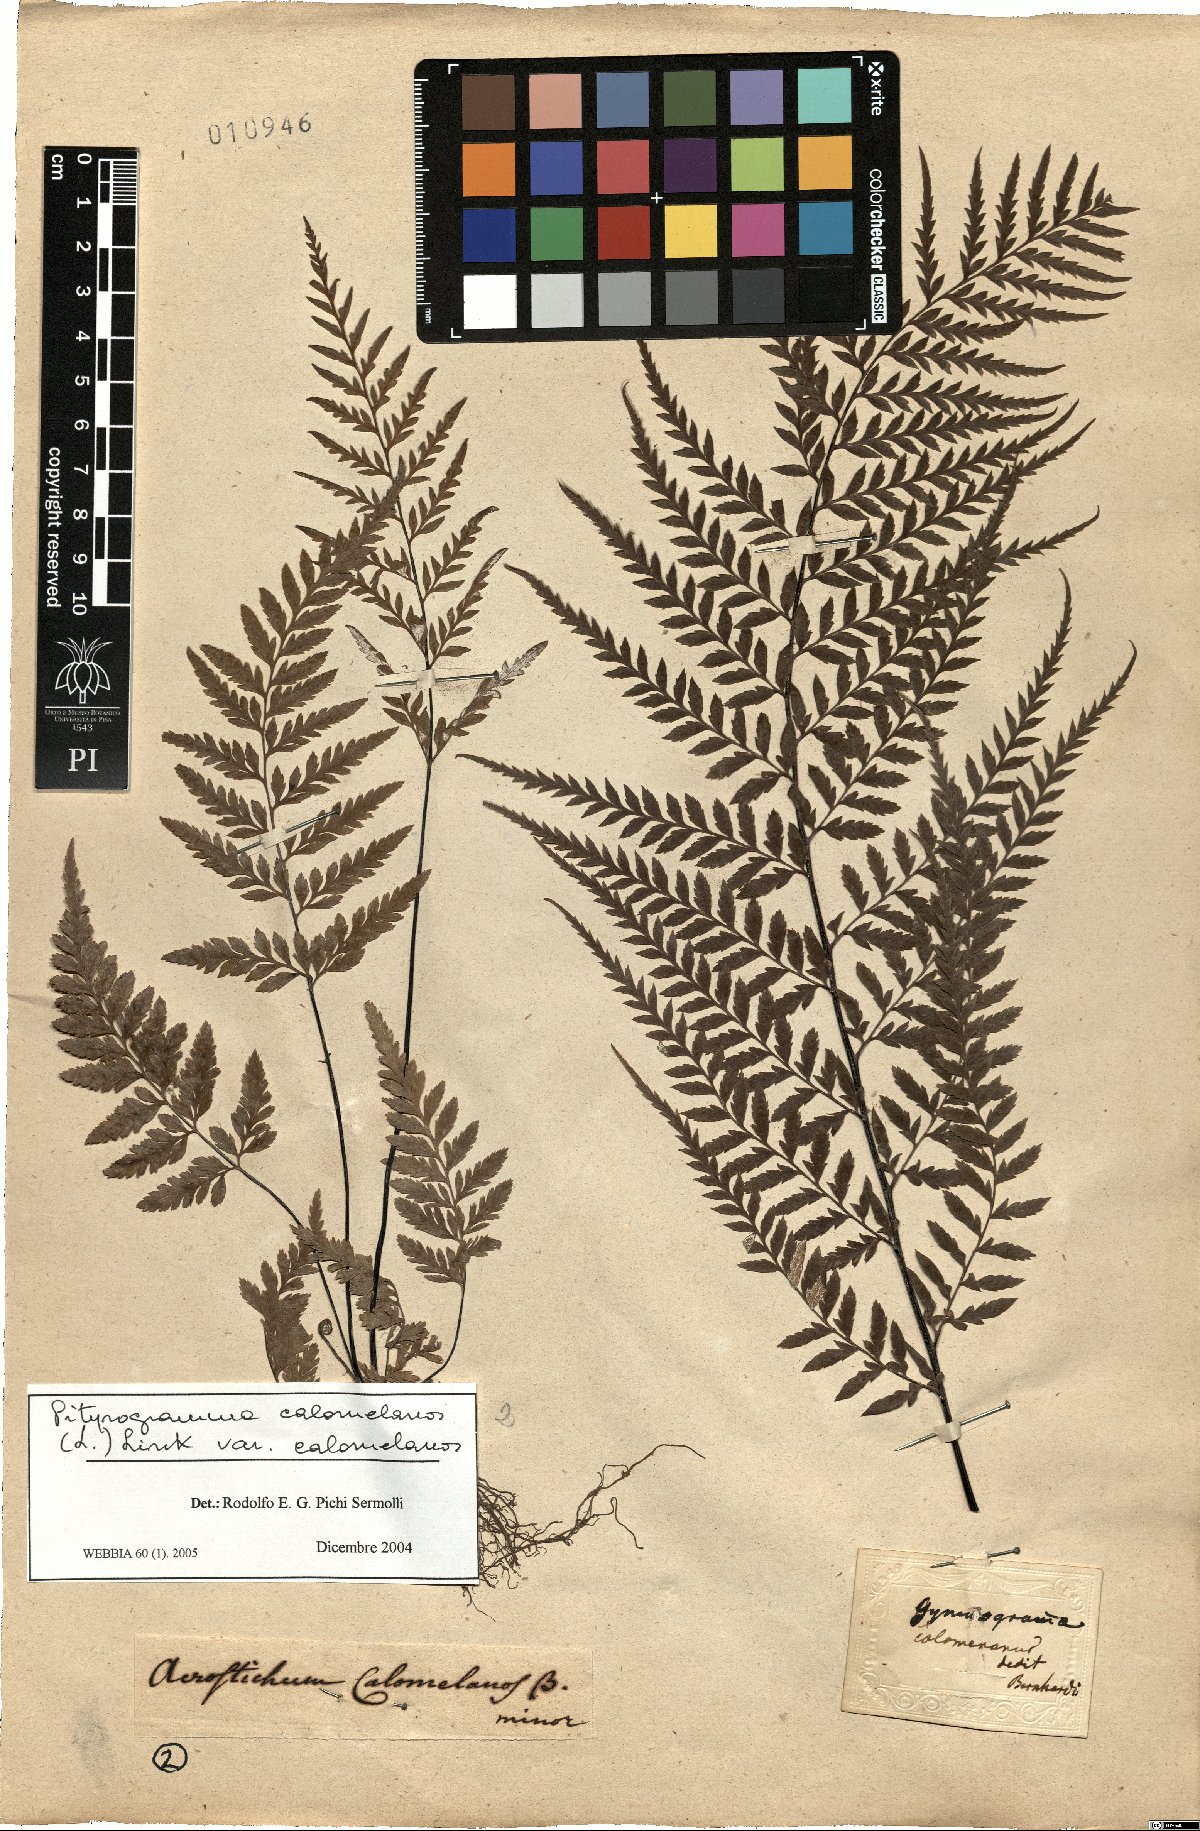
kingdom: Plantae
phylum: Tracheophyta
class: Polypodiopsida
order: Polypodiales
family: Pteridaceae
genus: Pityrogramma
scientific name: Pityrogramma calomelanos
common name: Dixie silverback fern
